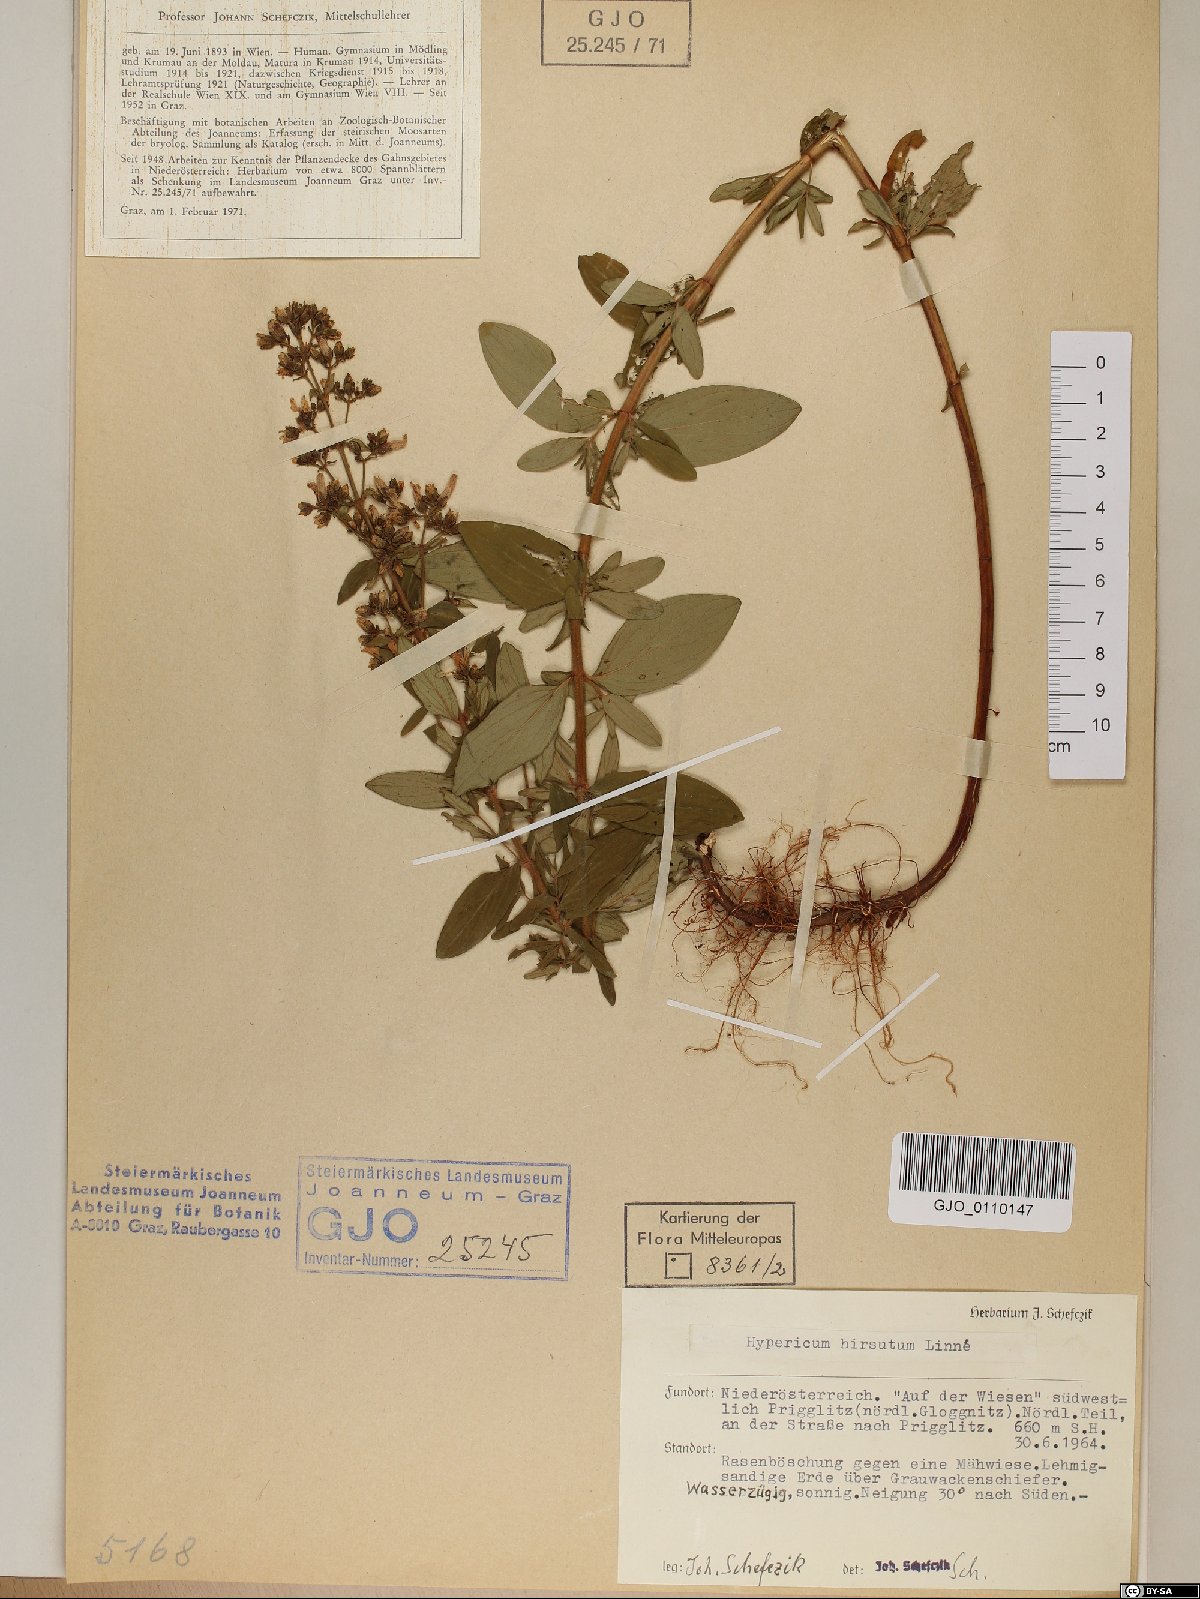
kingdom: Plantae
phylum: Tracheophyta
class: Magnoliopsida
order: Malpighiales
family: Hypericaceae
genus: Hypericum
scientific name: Hypericum hirsutum
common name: Hairy st. john's-wort
